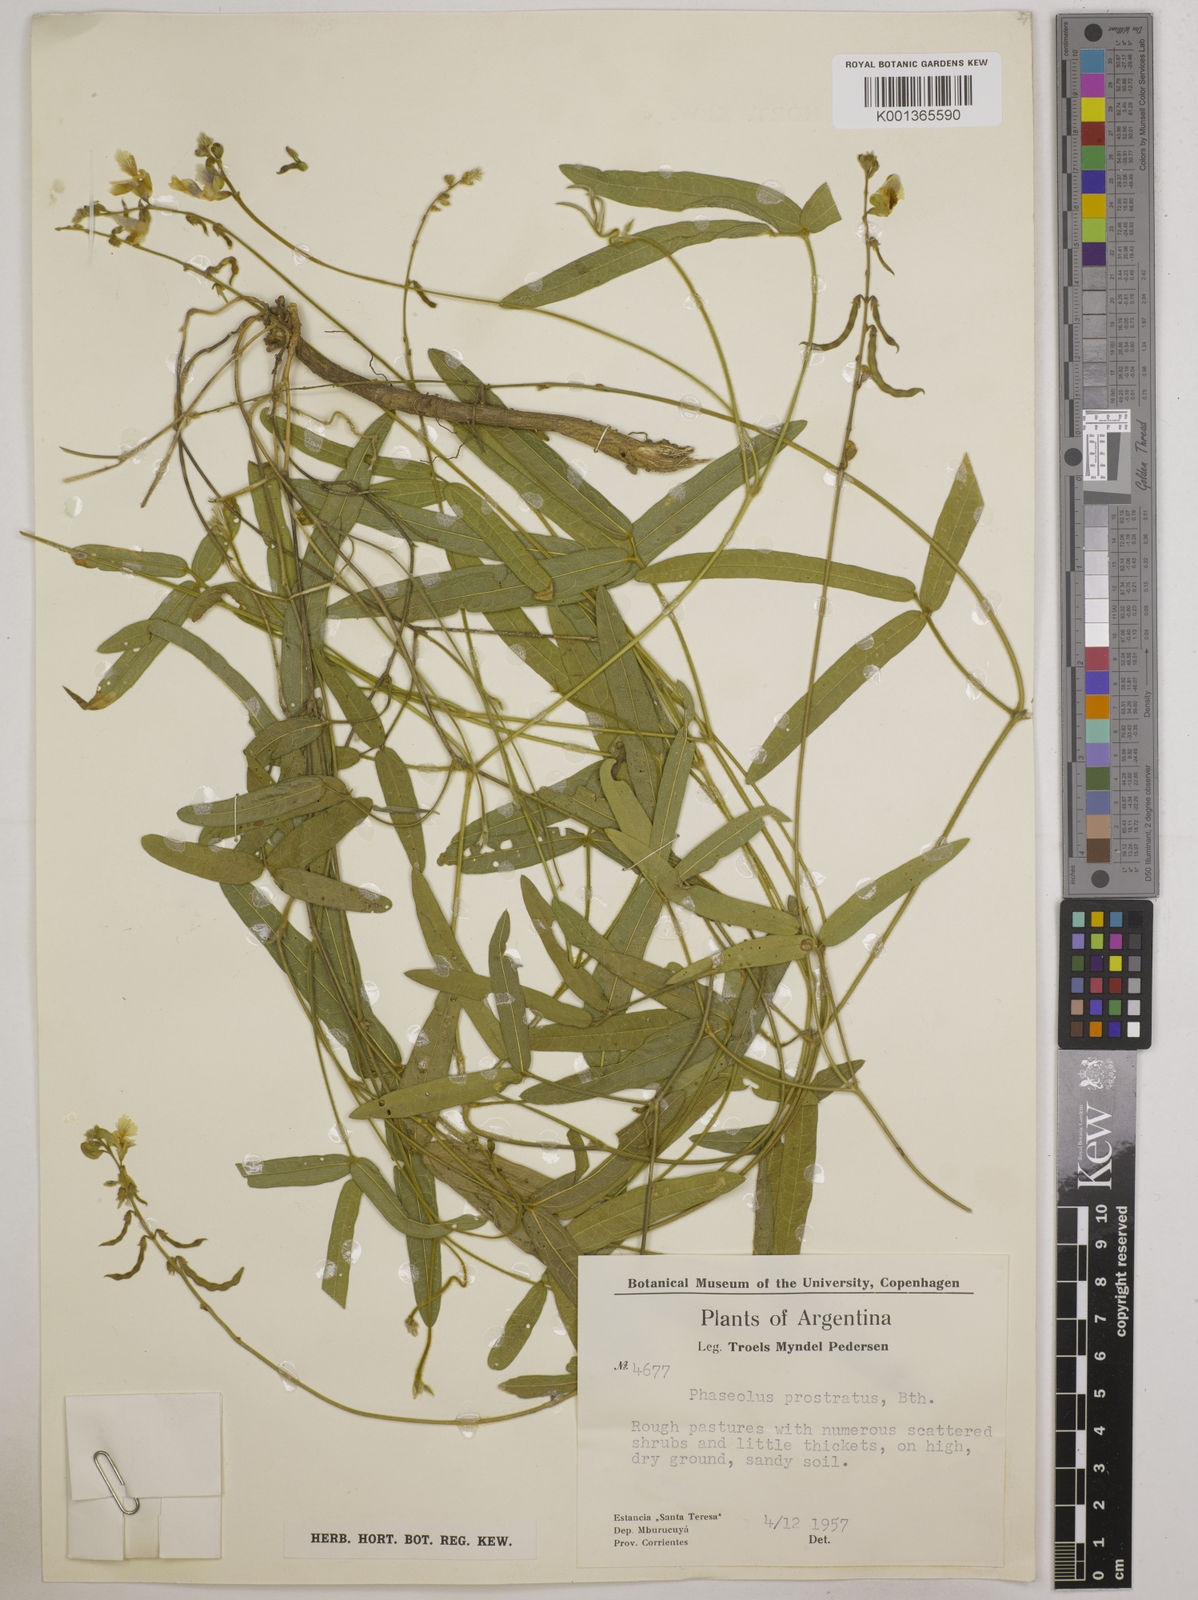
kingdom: Plantae
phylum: Tracheophyta
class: Magnoliopsida
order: Fabales
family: Fabaceae
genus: Macroptilium
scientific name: Macroptilium prostratum
